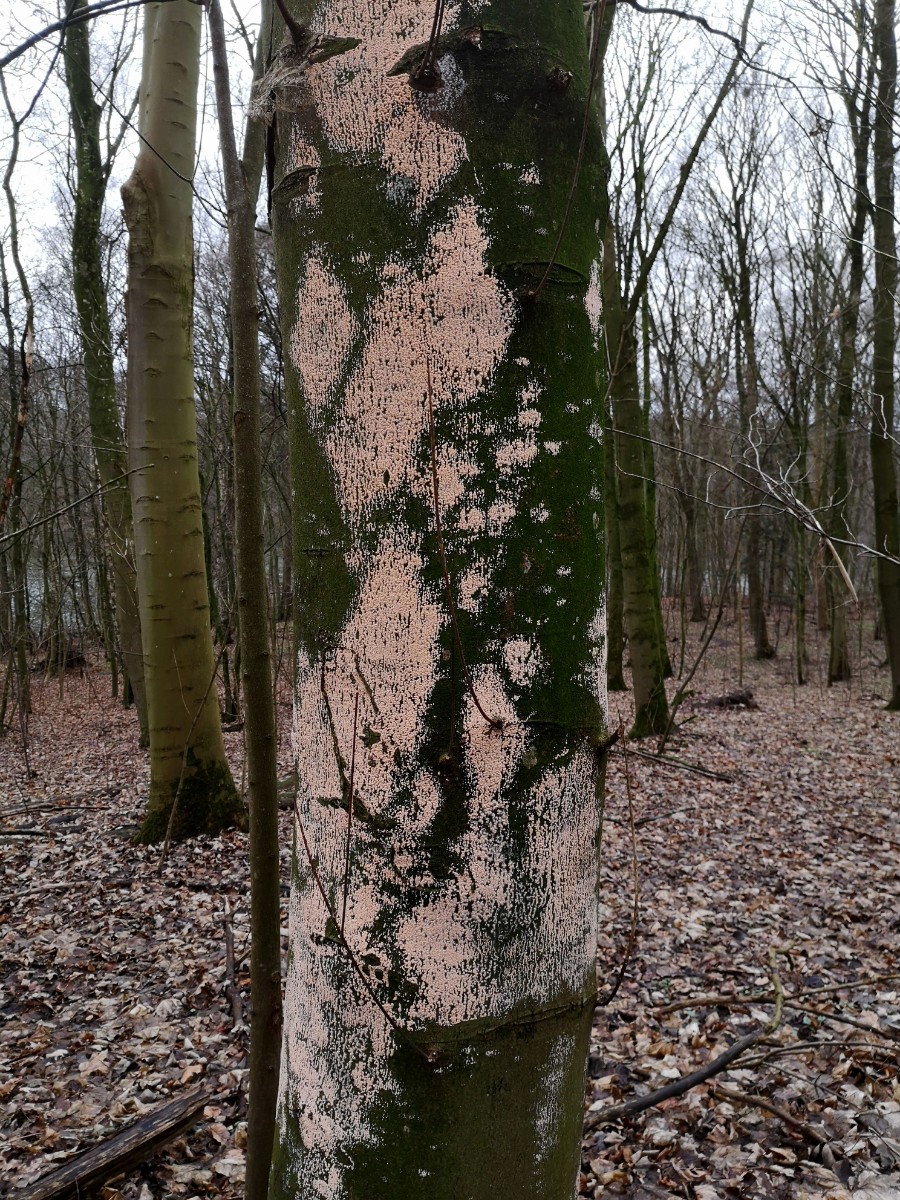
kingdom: Fungi
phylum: Ascomycota
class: Sordariomycetes
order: Hypocreales
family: Nectriaceae
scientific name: Nectriaceae
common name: cinnobersvampfamilien
